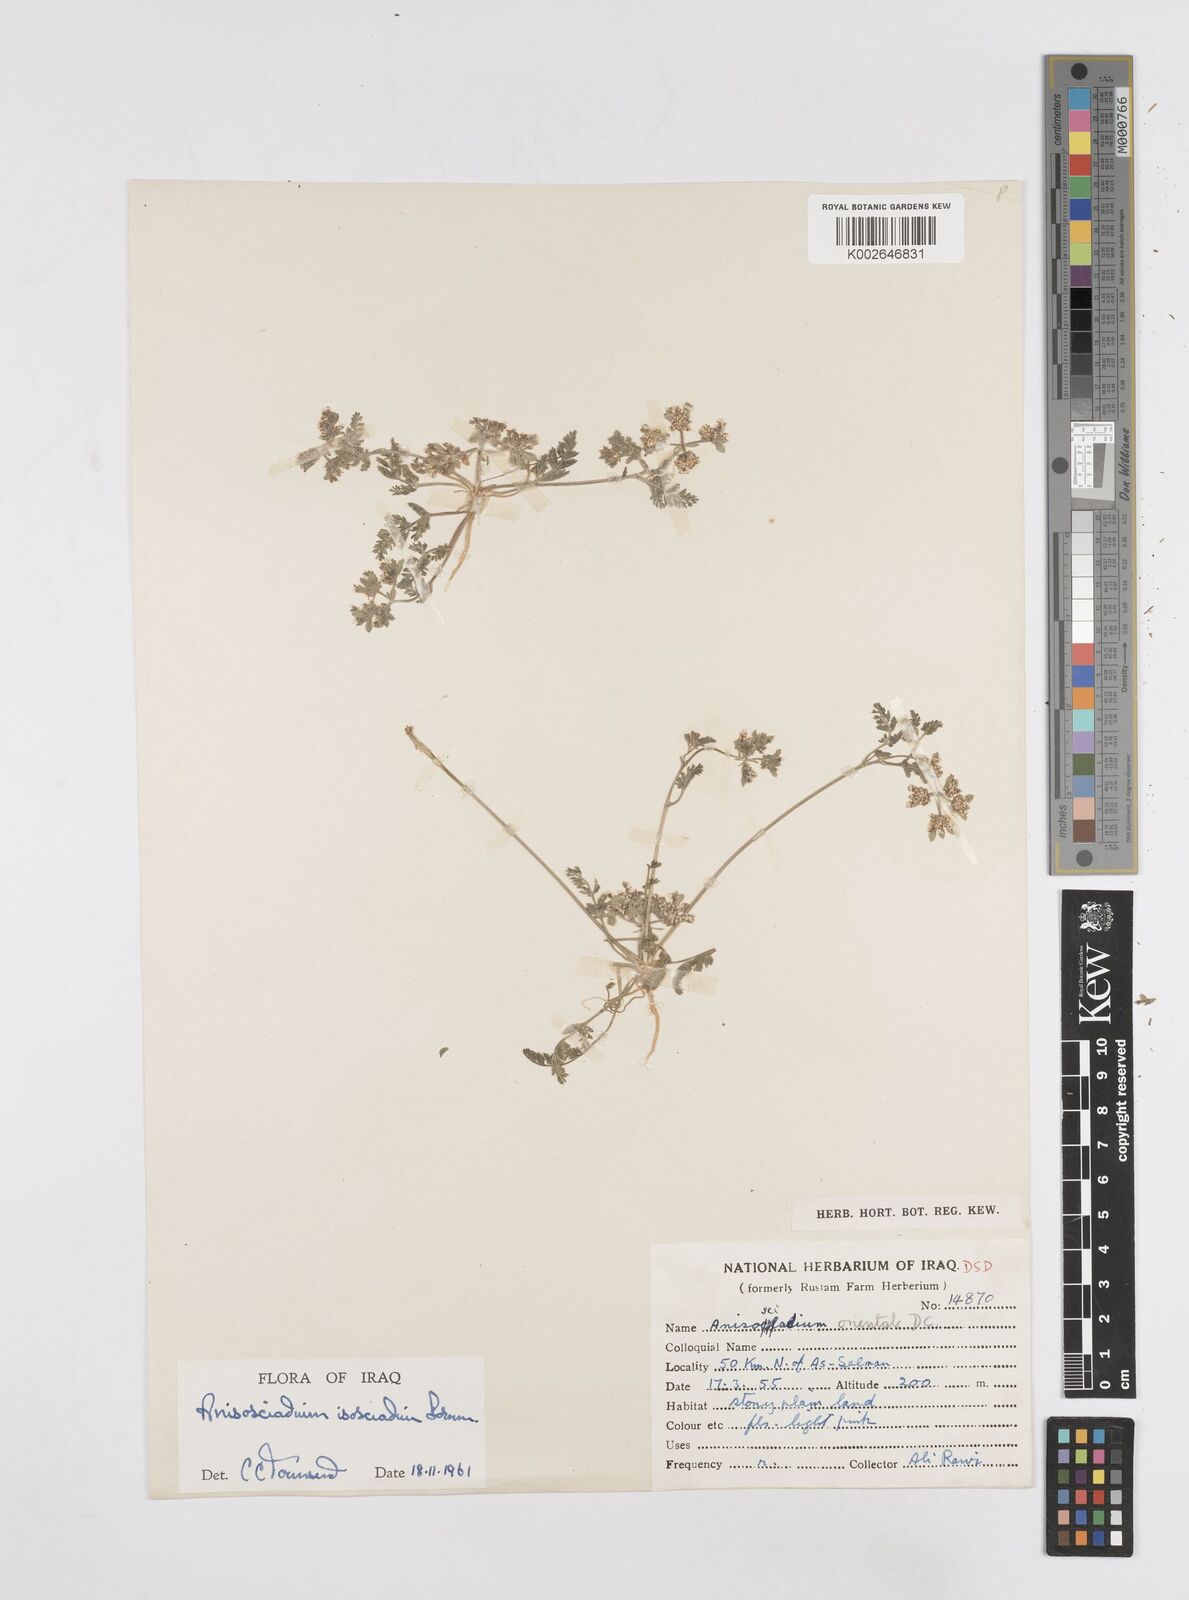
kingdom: Plantae
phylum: Tracheophyta
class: Magnoliopsida
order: Apiales
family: Apiaceae
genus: Anisosciadium
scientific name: Anisosciadium isosciadium
